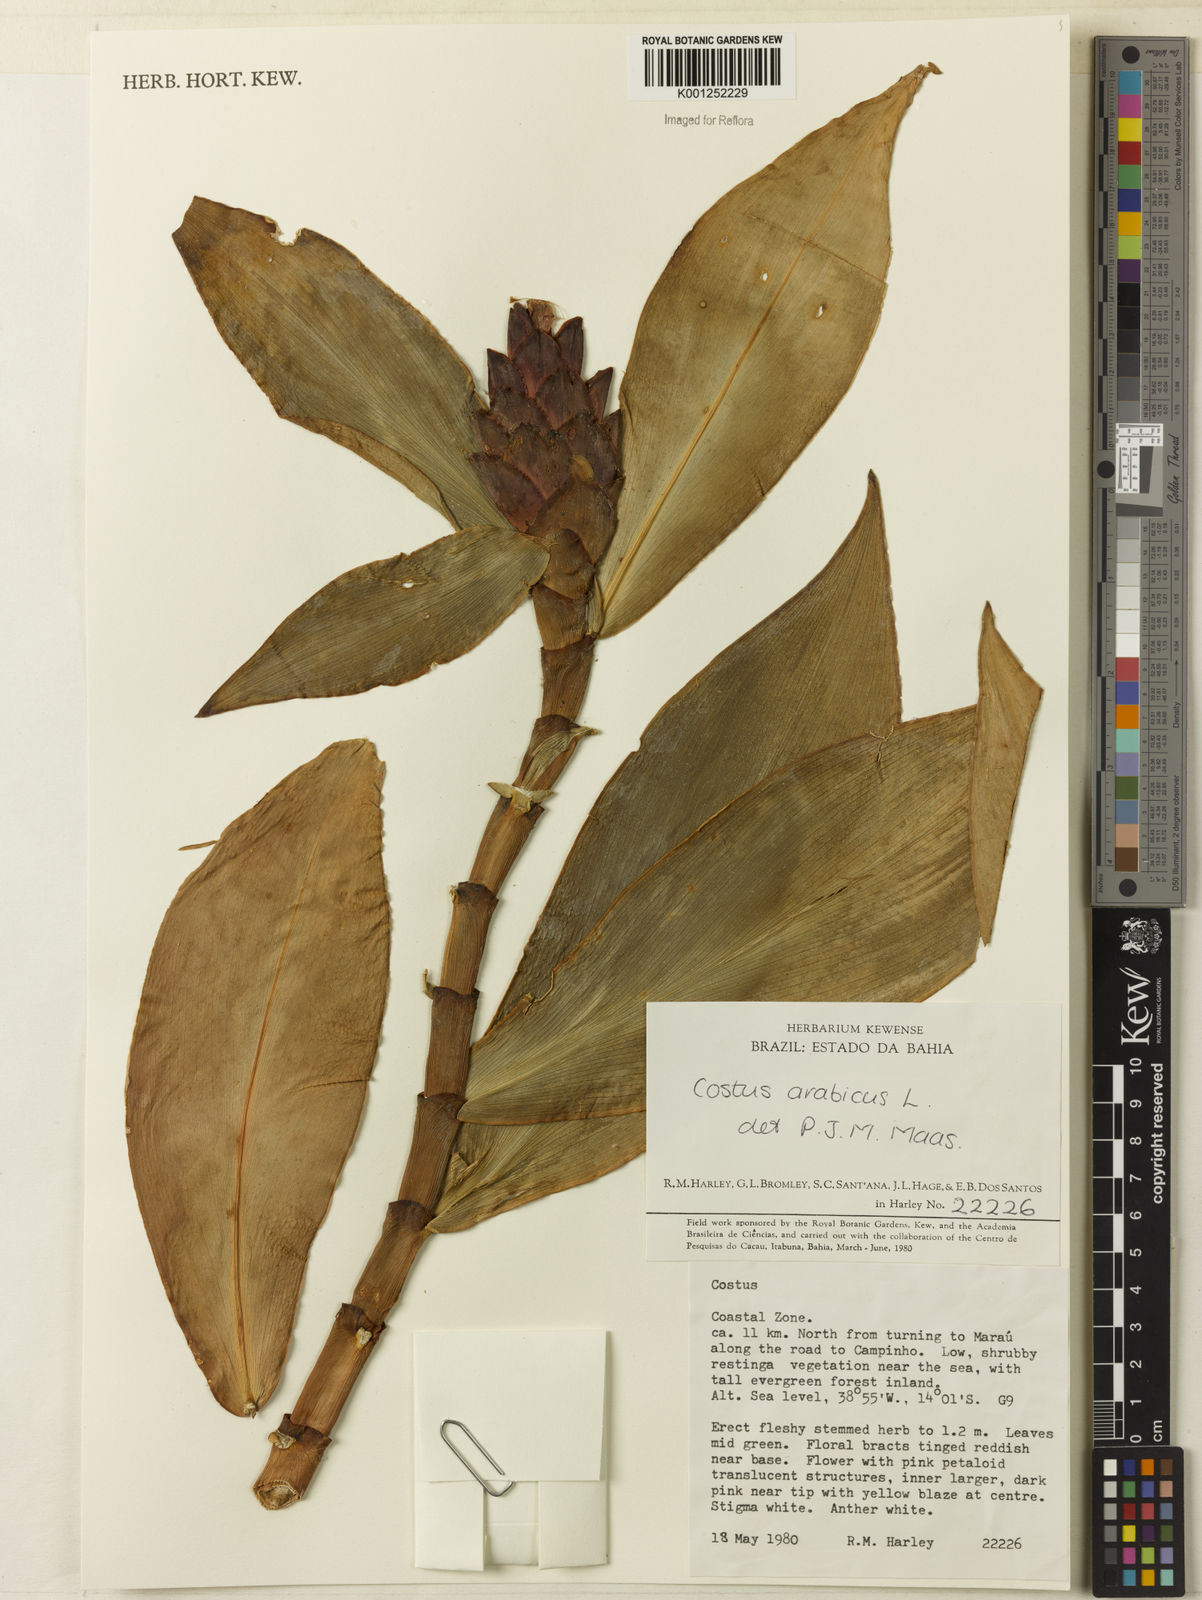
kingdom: Plantae
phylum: Tracheophyta
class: Liliopsida
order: Zingiberales
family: Costaceae
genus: Costus
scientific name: Costus arabicus
